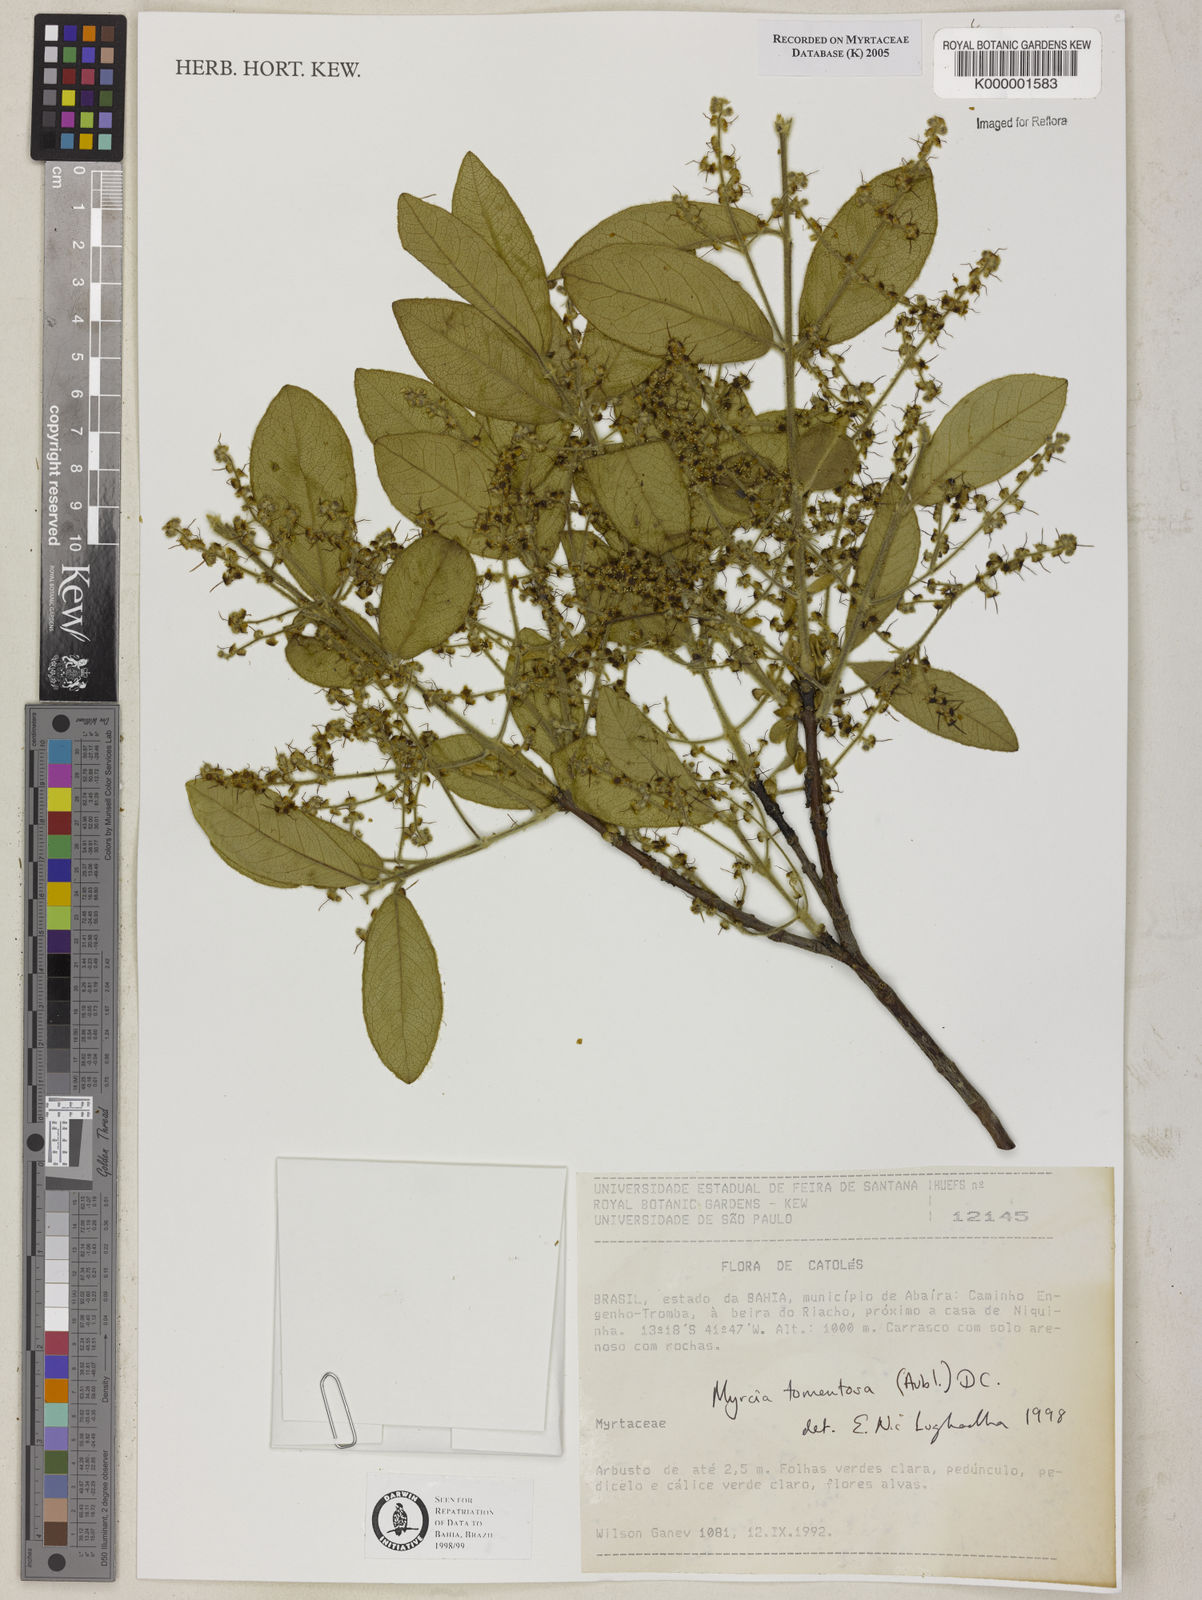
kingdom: Plantae
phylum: Tracheophyta
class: Magnoliopsida
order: Myrtales
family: Myrtaceae
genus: Myrcia
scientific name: Myrcia tomentosa
